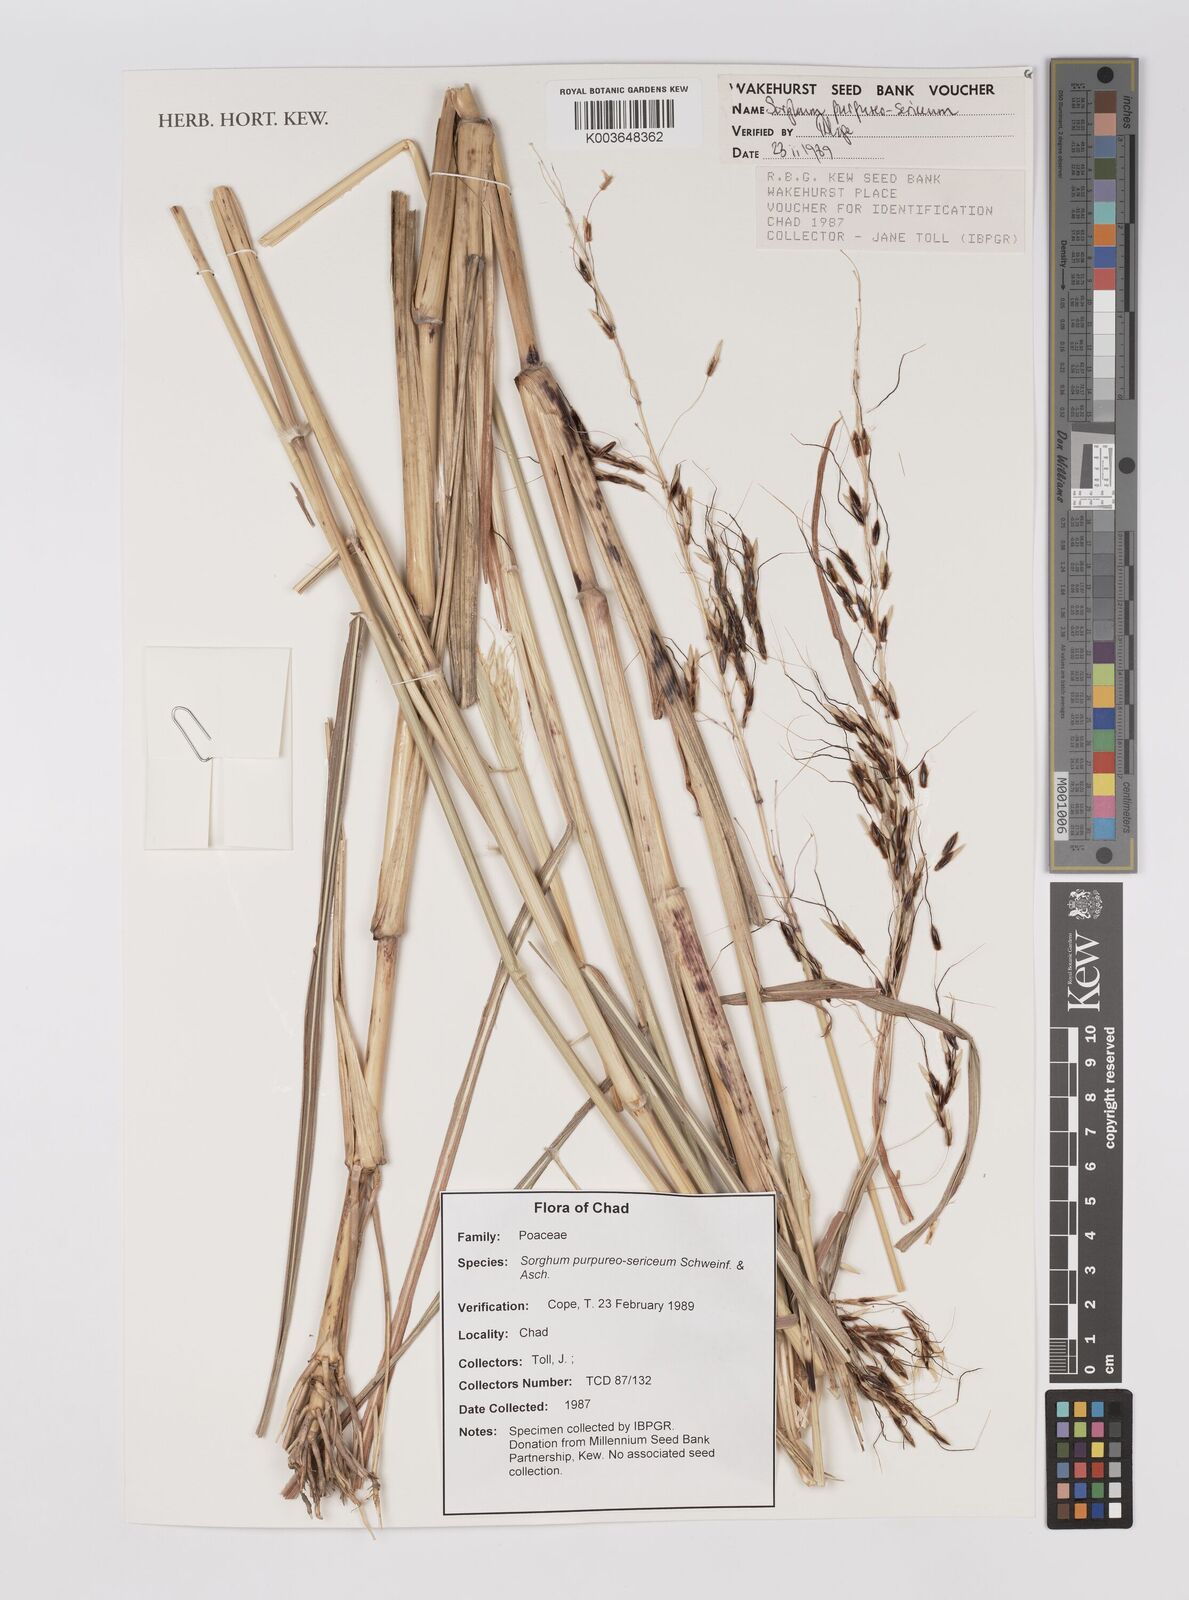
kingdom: Plantae
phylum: Tracheophyta
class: Liliopsida
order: Poales
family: Poaceae
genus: Sarga
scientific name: Sarga purpureosericea
